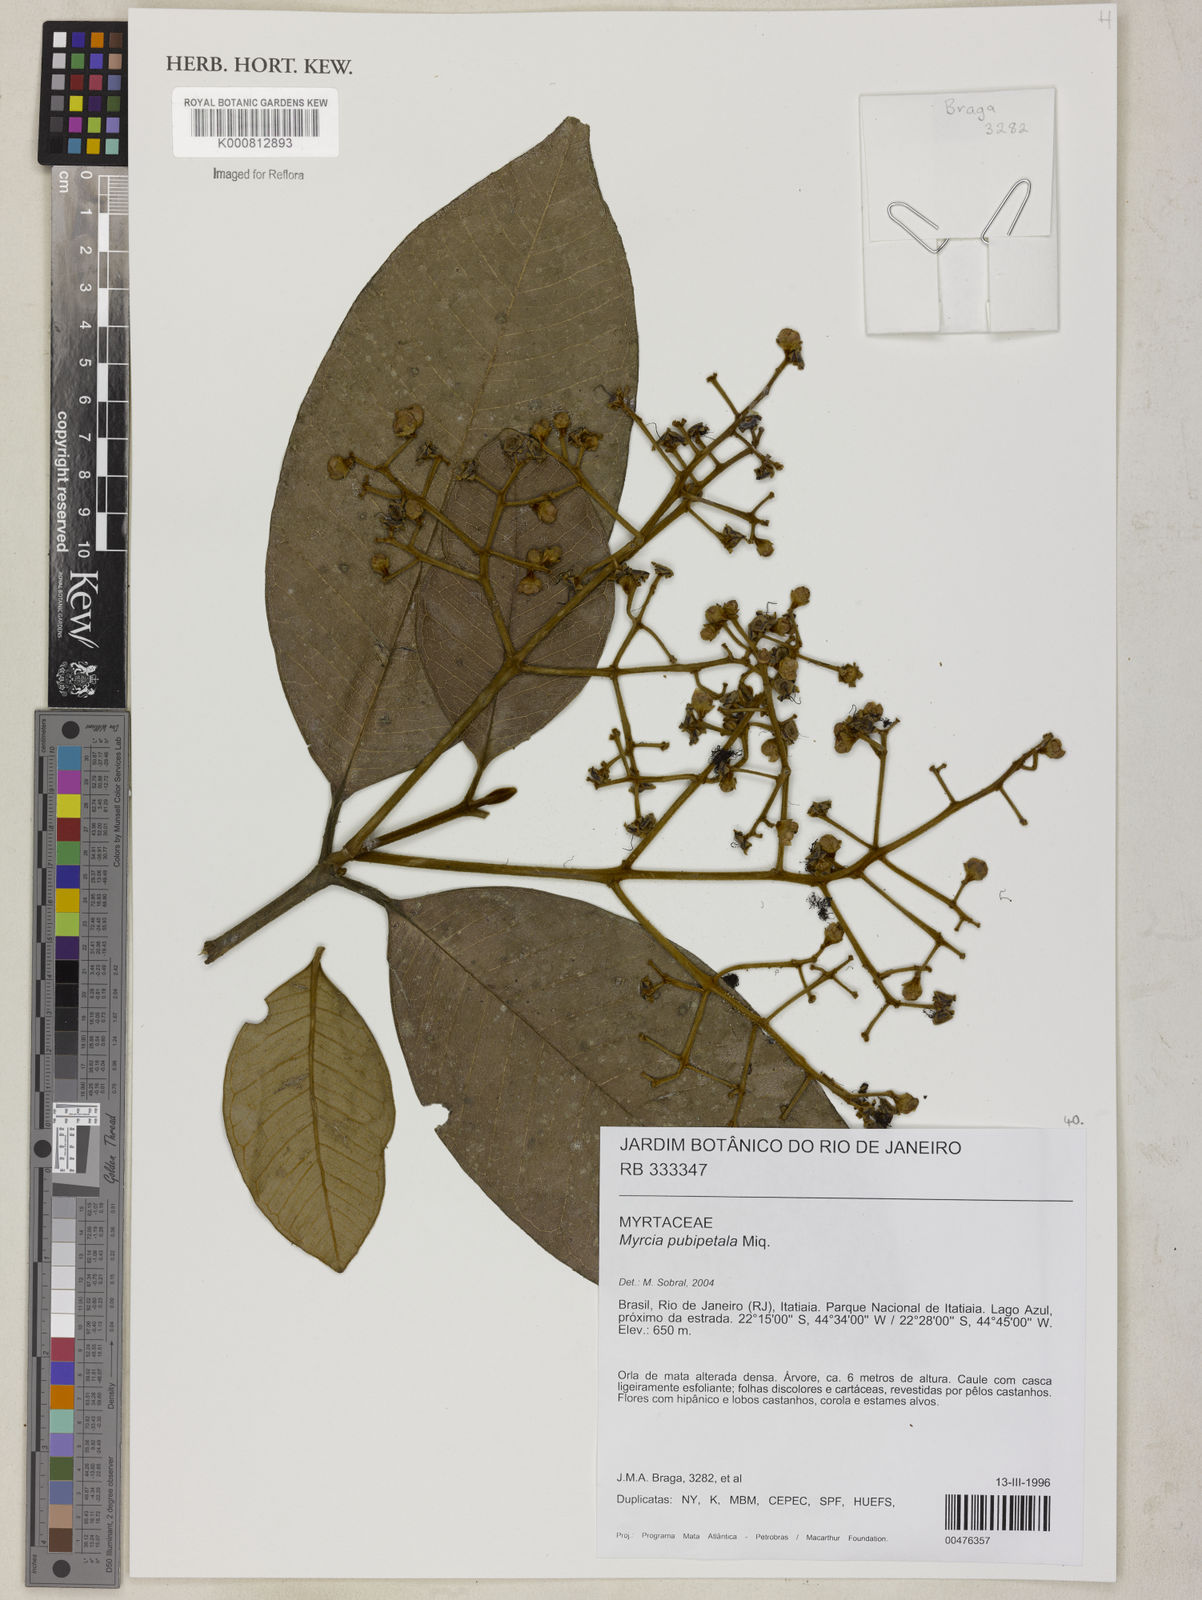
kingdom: Plantae
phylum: Tracheophyta
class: Magnoliopsida
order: Myrtales
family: Myrtaceae
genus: Myrcia
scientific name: Myrcia pubipetala
